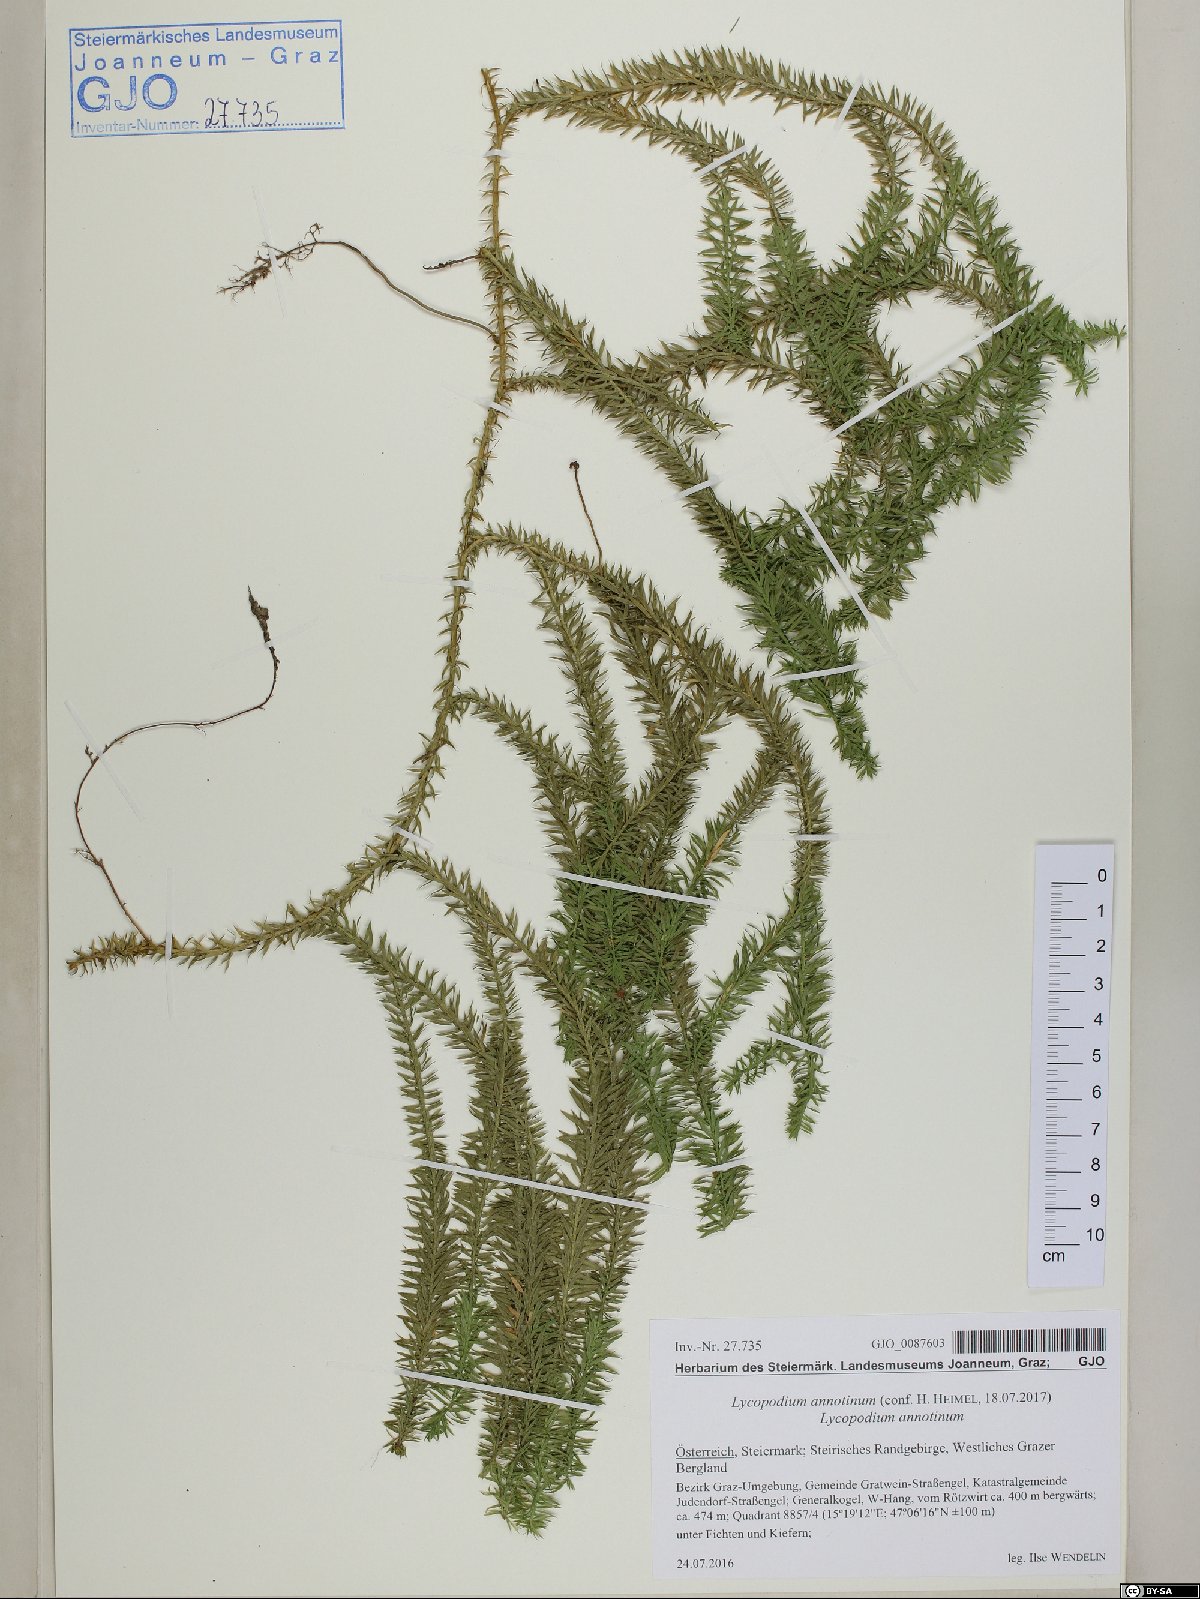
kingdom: Plantae
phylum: Tracheophyta
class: Lycopodiopsida
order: Lycopodiales
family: Lycopodiaceae
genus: Spinulum
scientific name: Spinulum annotinum
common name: Interrupted club-moss
